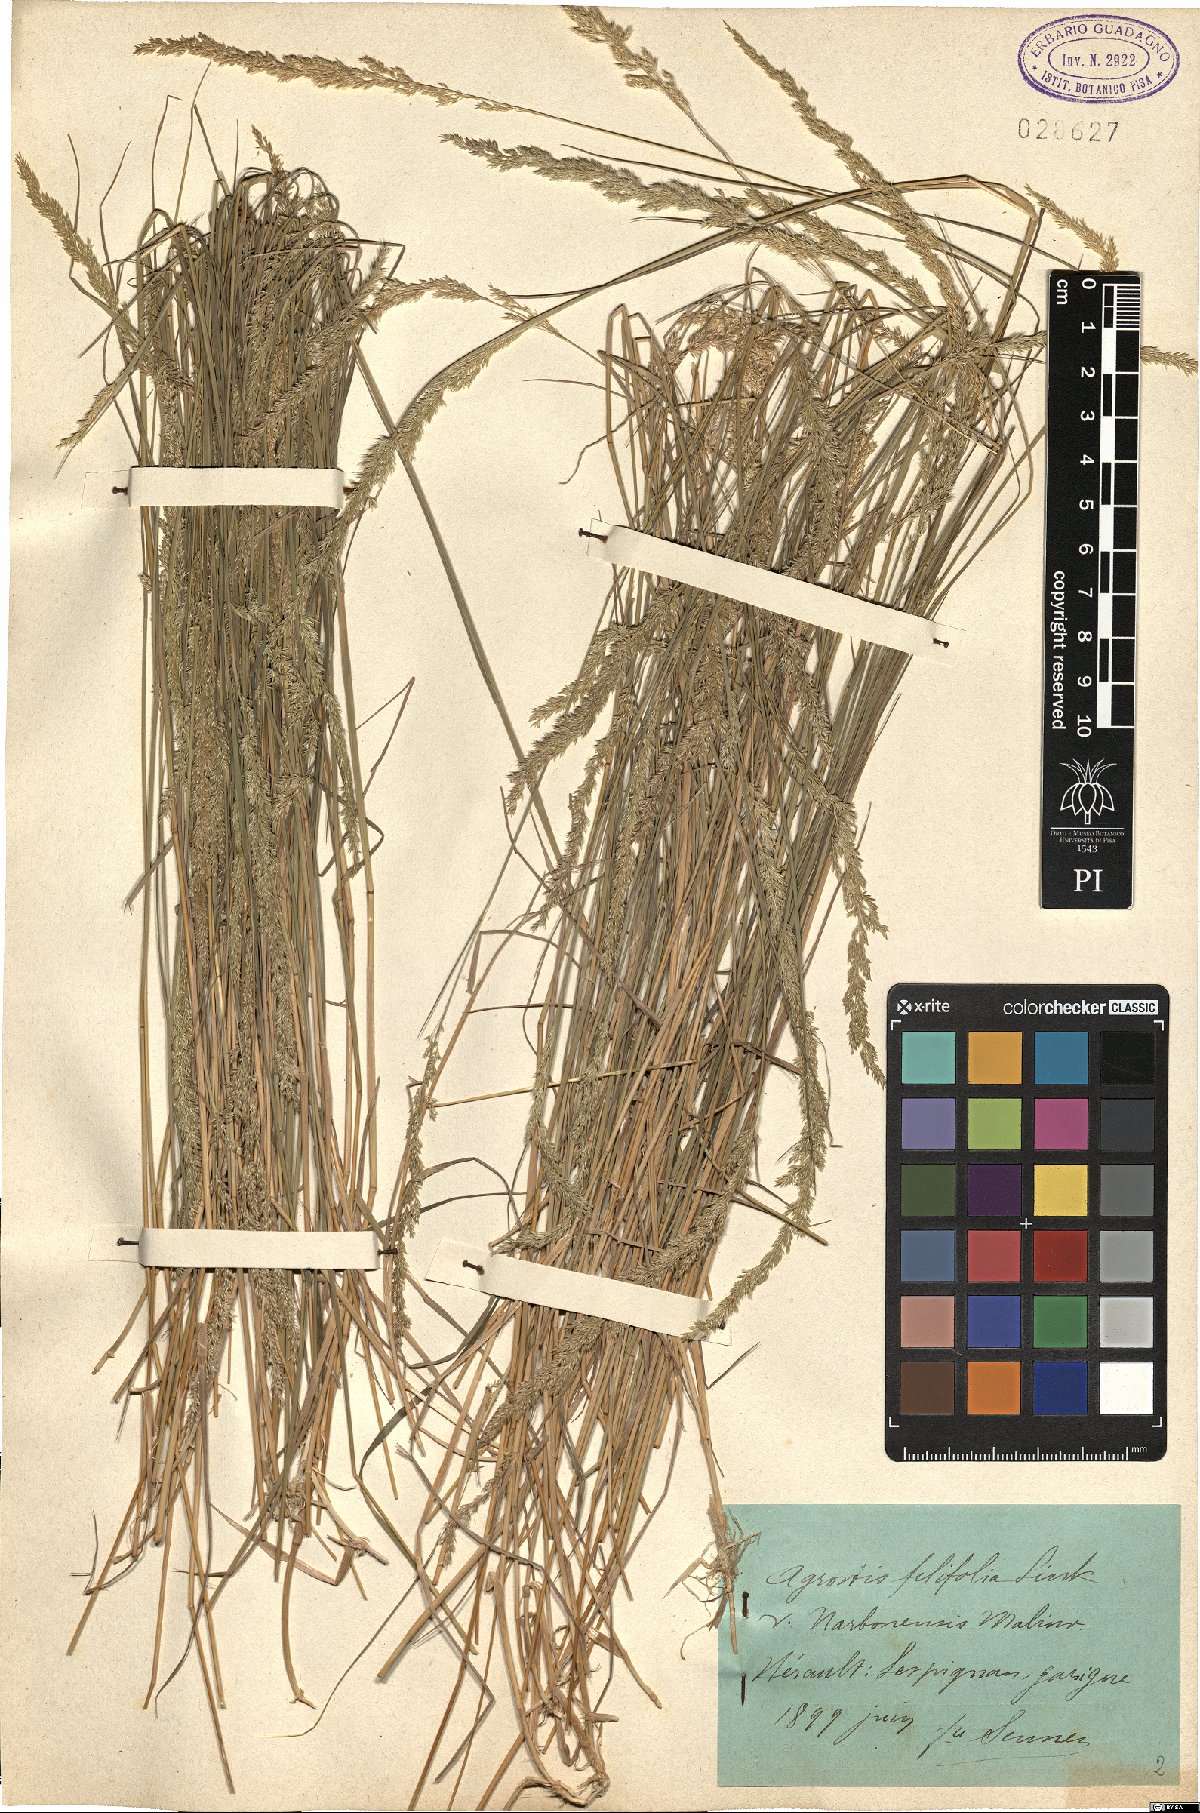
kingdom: Plantae
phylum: Tracheophyta
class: Liliopsida
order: Poales
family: Poaceae
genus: Agrostis
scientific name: Agrostis stolonifera
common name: Creeping bentgrass
